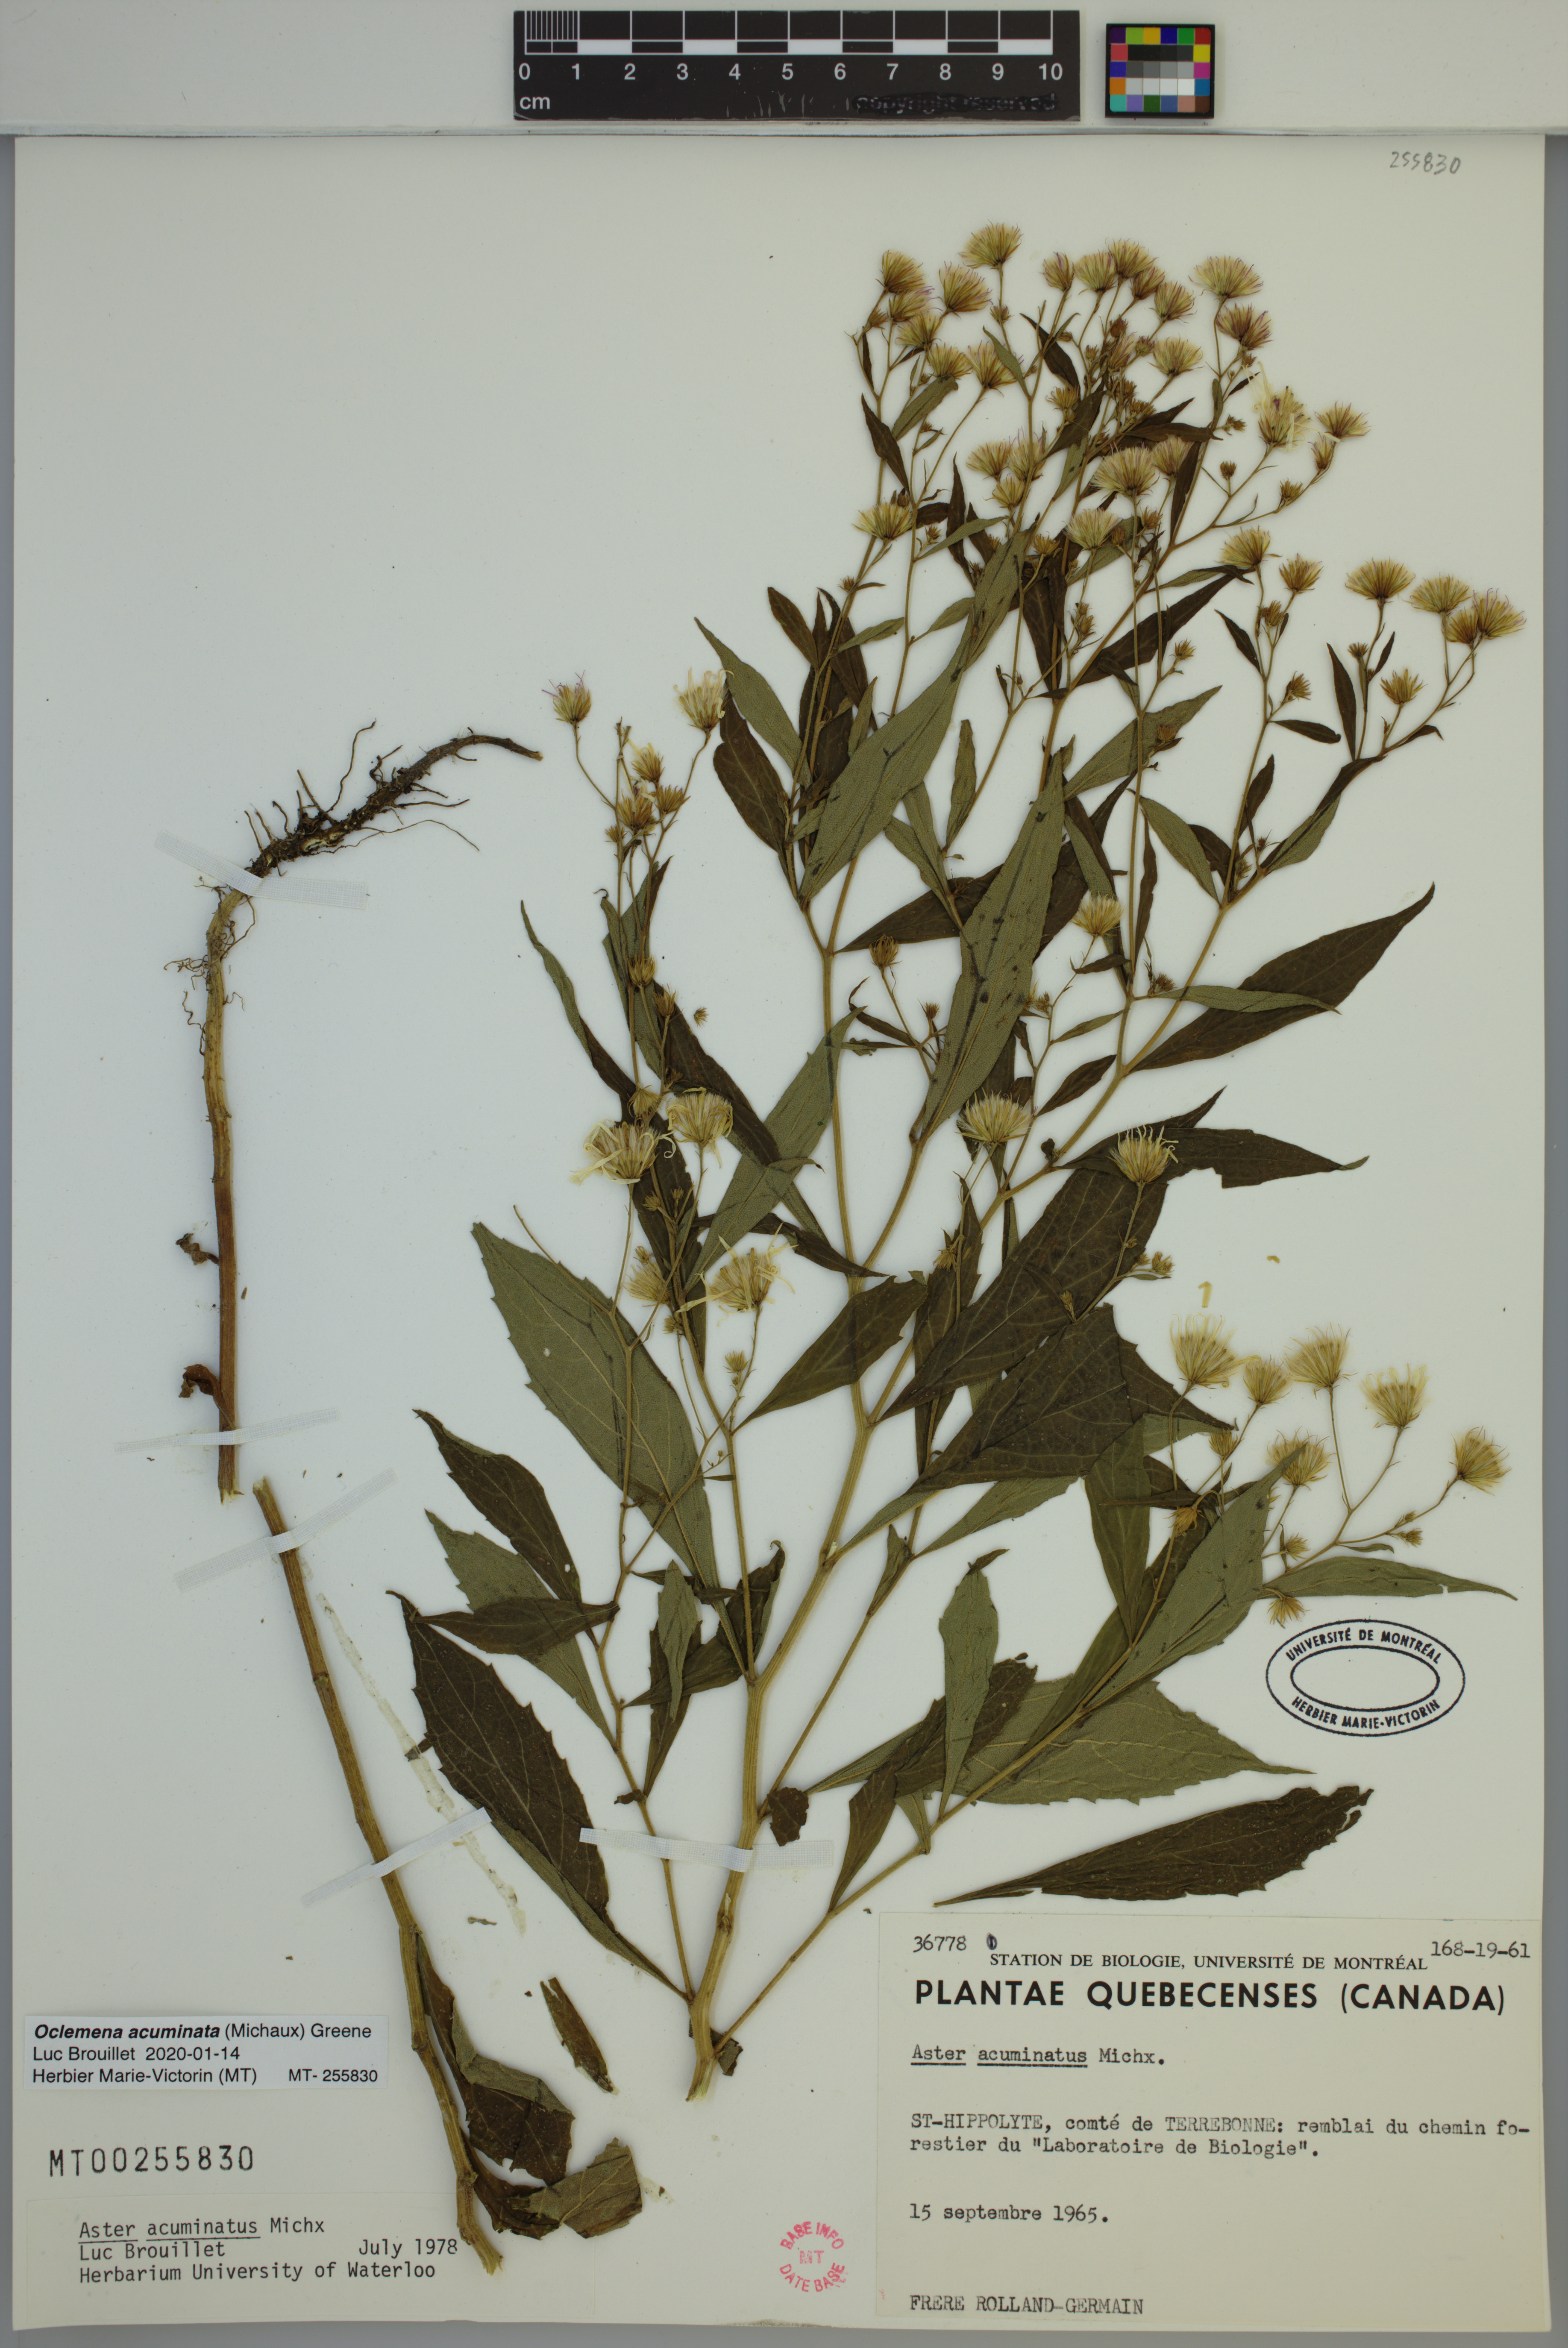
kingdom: Plantae
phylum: Tracheophyta
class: Magnoliopsida
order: Asterales
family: Asteraceae
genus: Oclemena
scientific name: Oclemena acuminata
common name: Mountain aster
